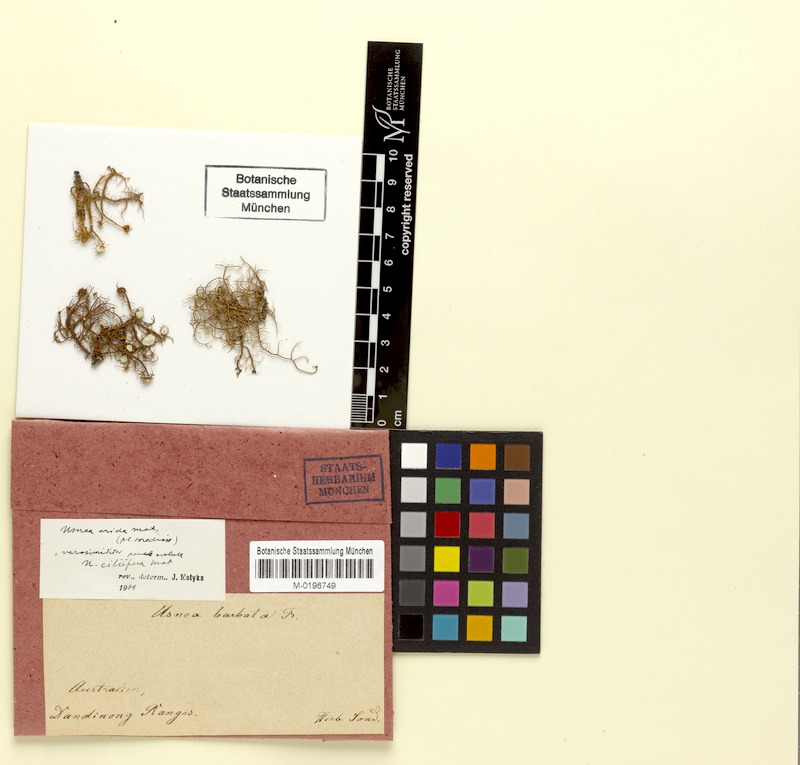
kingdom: Fungi
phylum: Ascomycota
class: Lecanoromycetes
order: Lecanorales
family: Parmeliaceae
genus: Usnea
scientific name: Usnea rubrotincta
